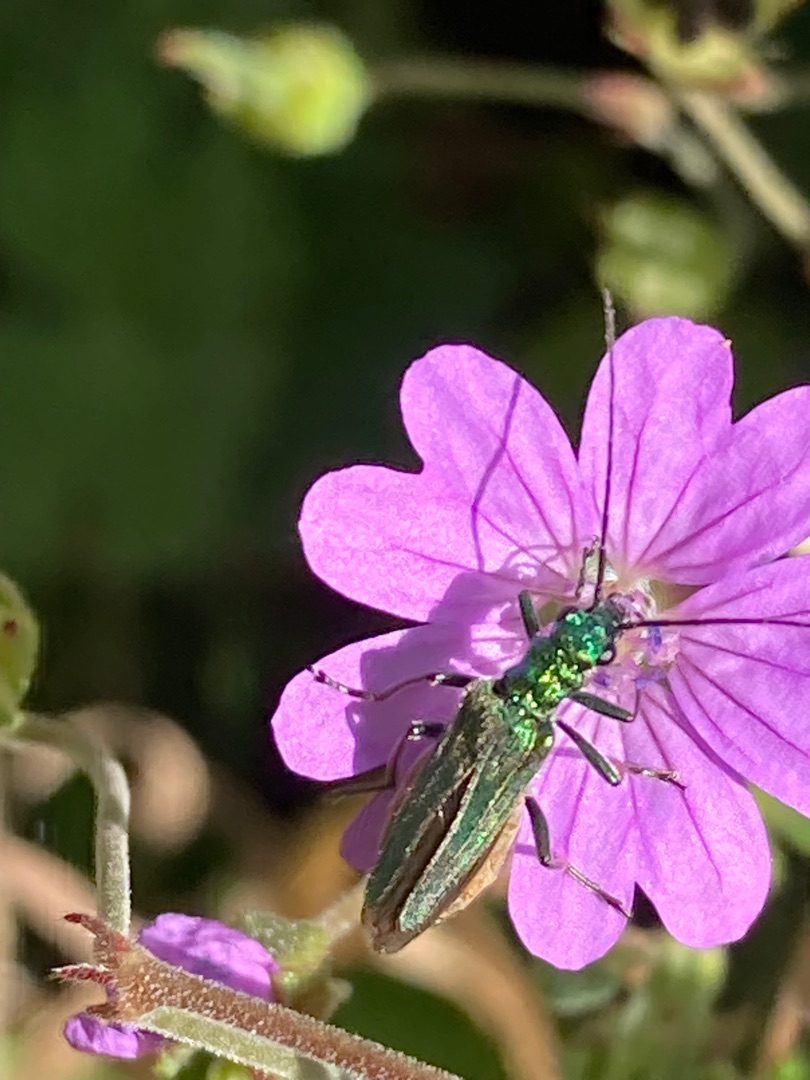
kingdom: Animalia
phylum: Arthropoda
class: Insecta
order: Coleoptera
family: Oedemeridae
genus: Oedemera
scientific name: Oedemera nobilis
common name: Tyklårssolbille
